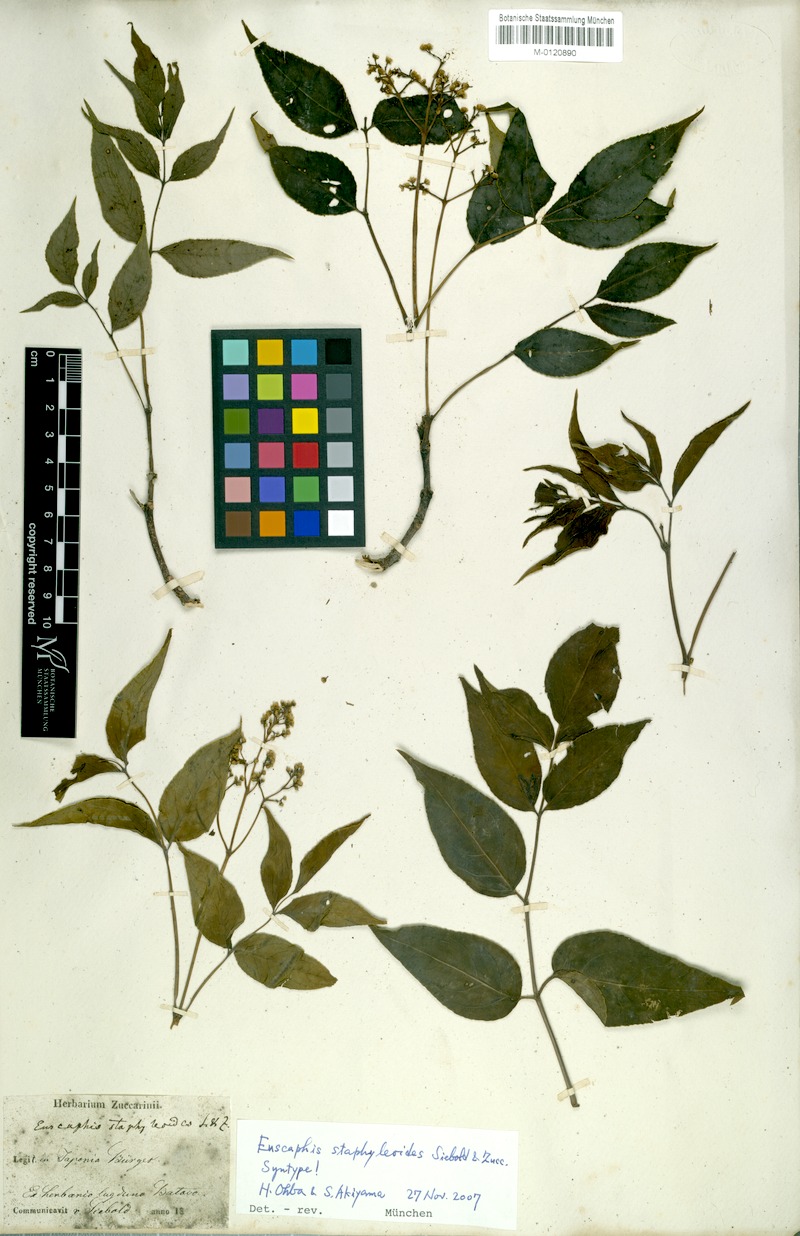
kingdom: Plantae
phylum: Tracheophyta
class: Magnoliopsida
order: Crossosomatales
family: Staphyleaceae
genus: Staphylea
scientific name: Staphylea japonica
